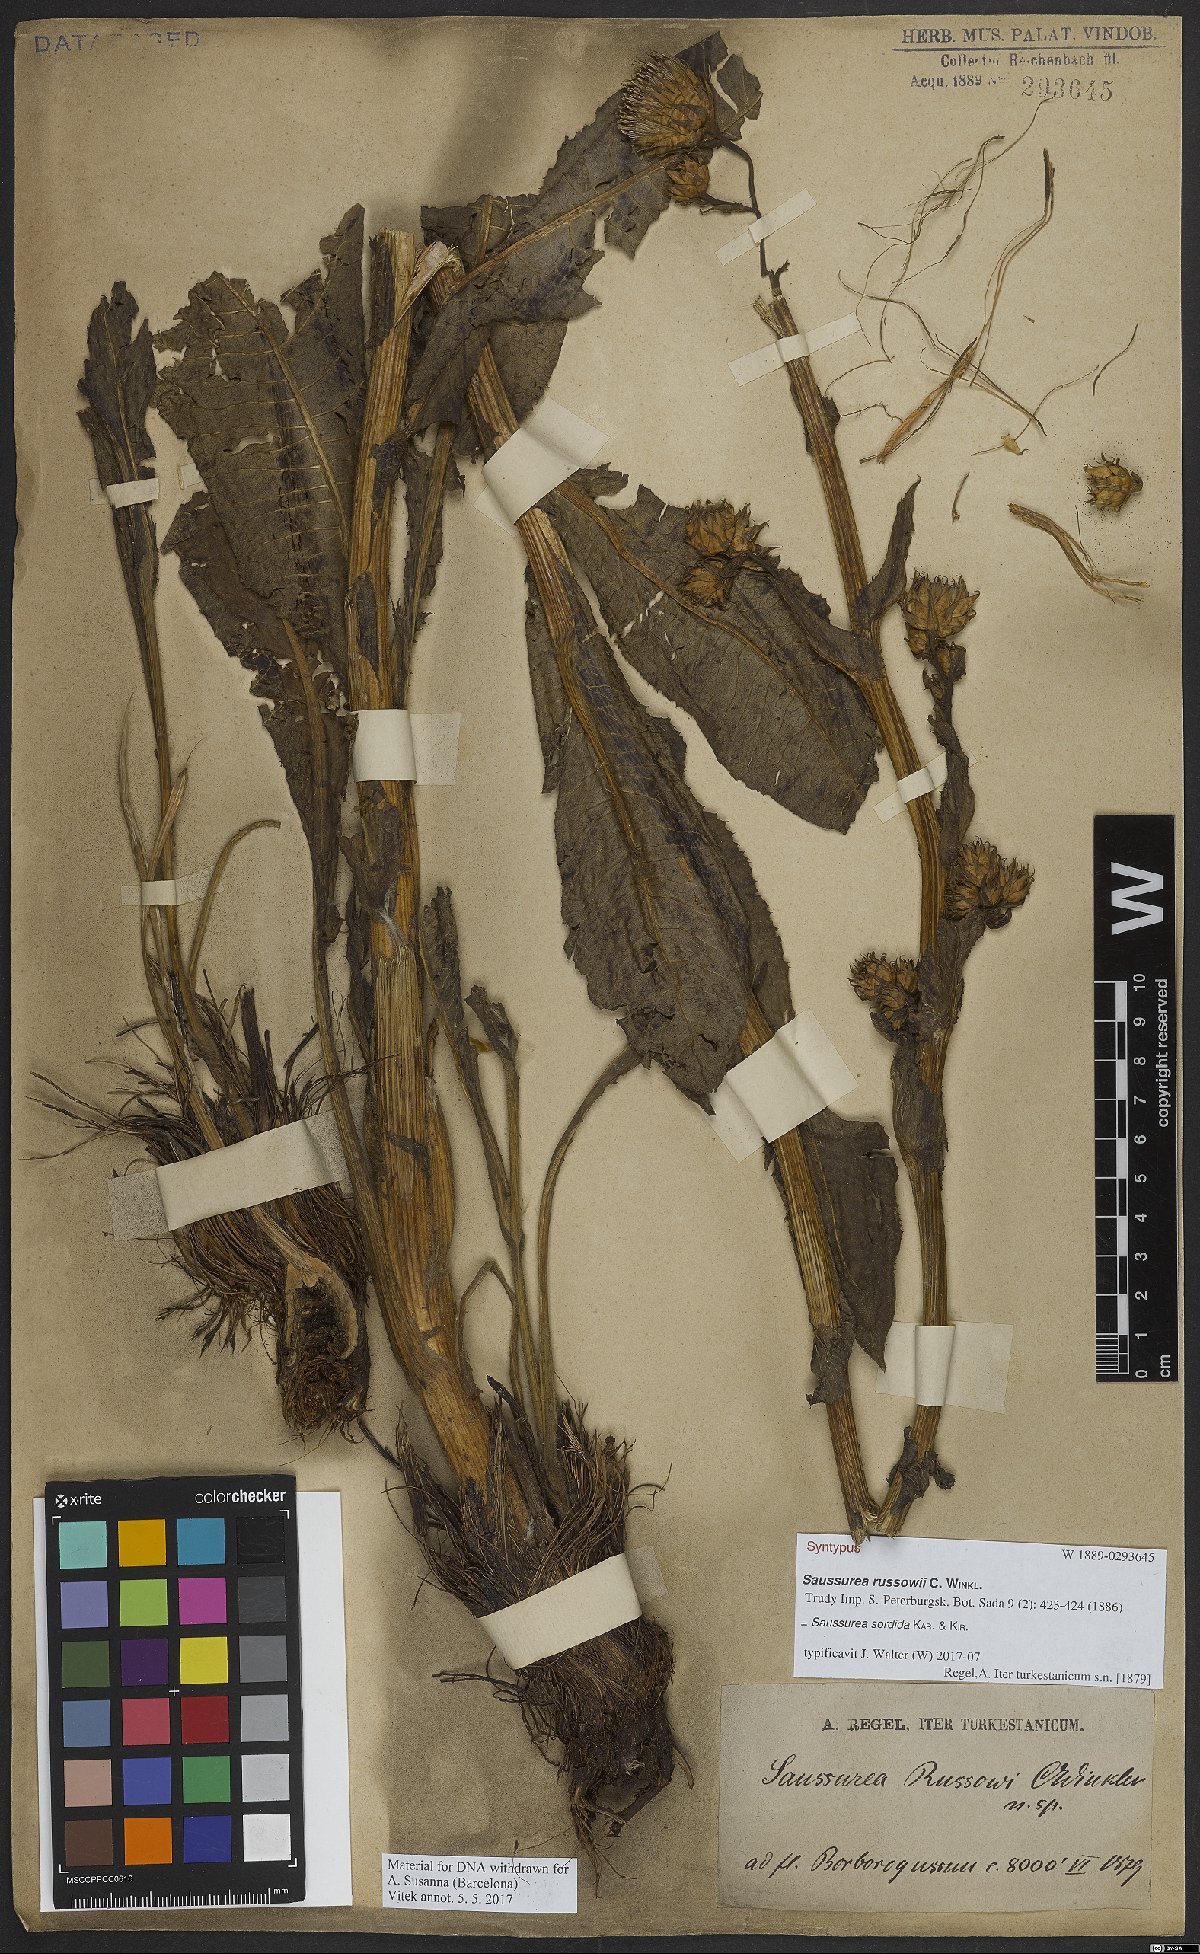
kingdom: Plantae
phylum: Tracheophyta
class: Magnoliopsida
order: Asterales
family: Asteraceae
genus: Saussurea
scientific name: Saussurea sordida
